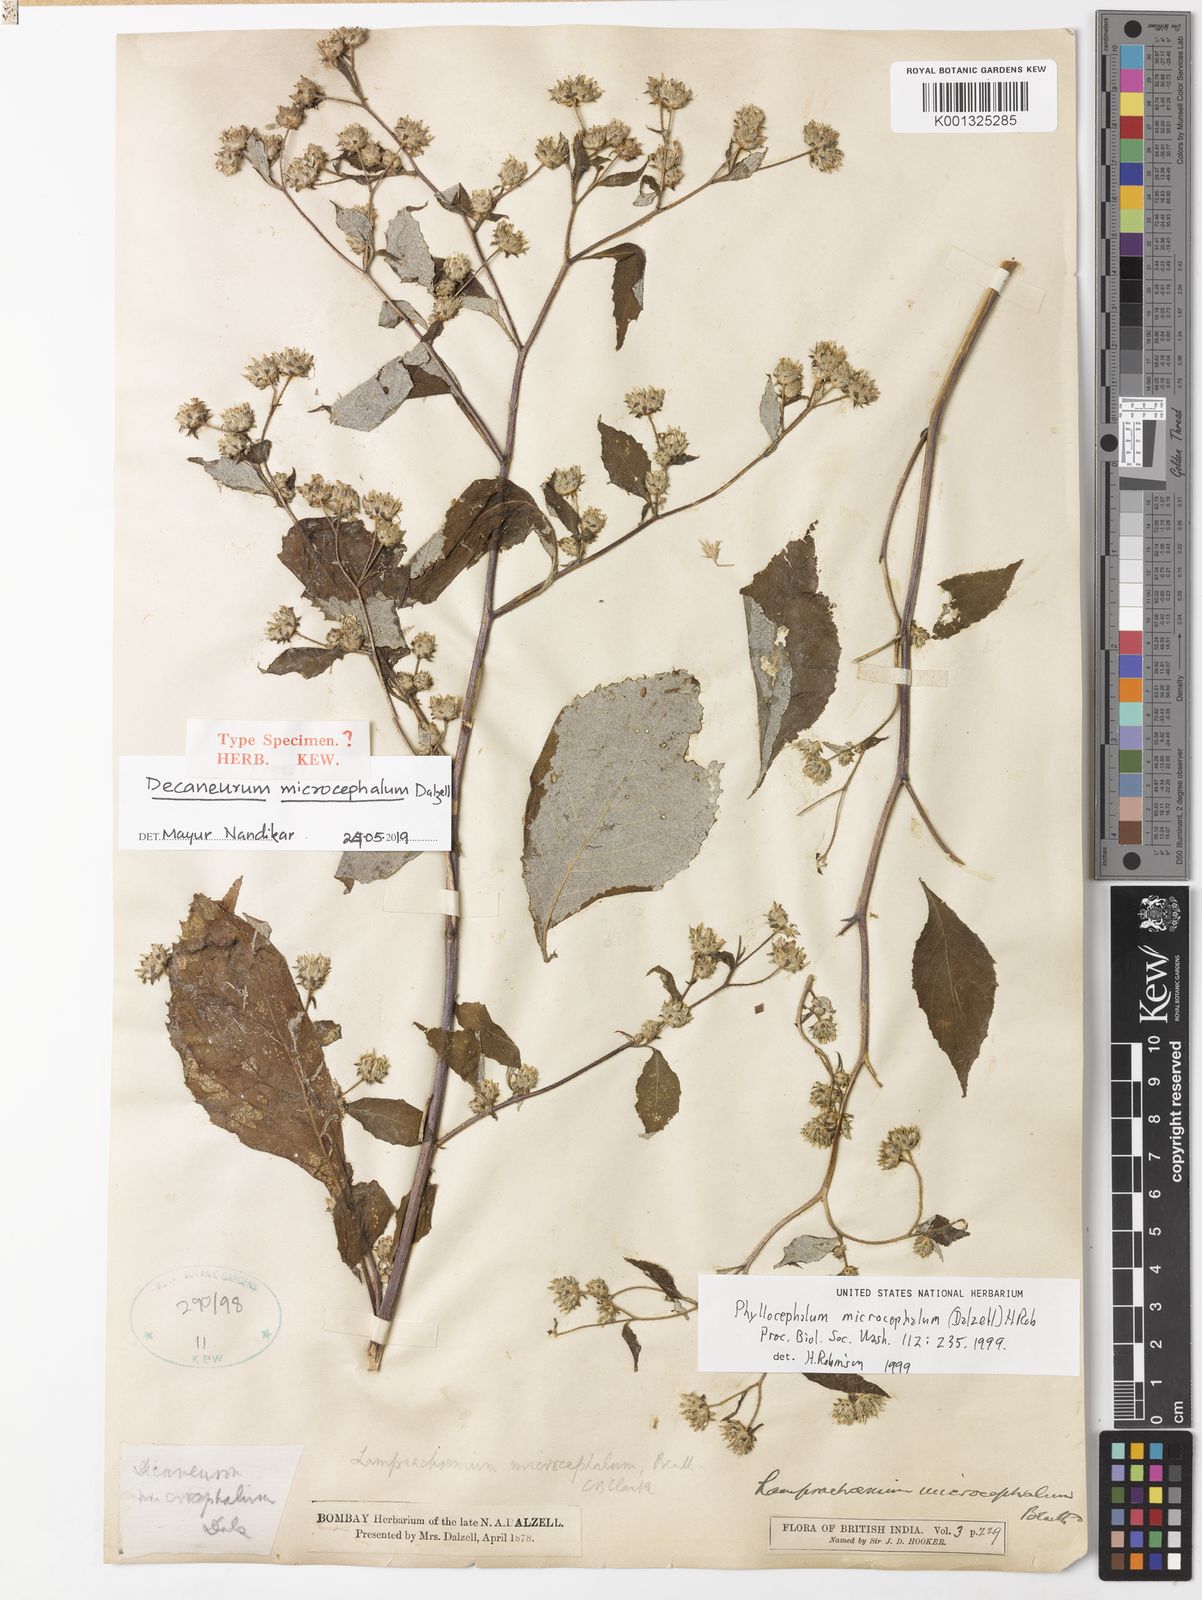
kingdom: Plantae
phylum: Tracheophyta
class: Magnoliopsida
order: Asterales
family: Asteraceae
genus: Phyllocephalum
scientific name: Phyllocephalum microcephalum
